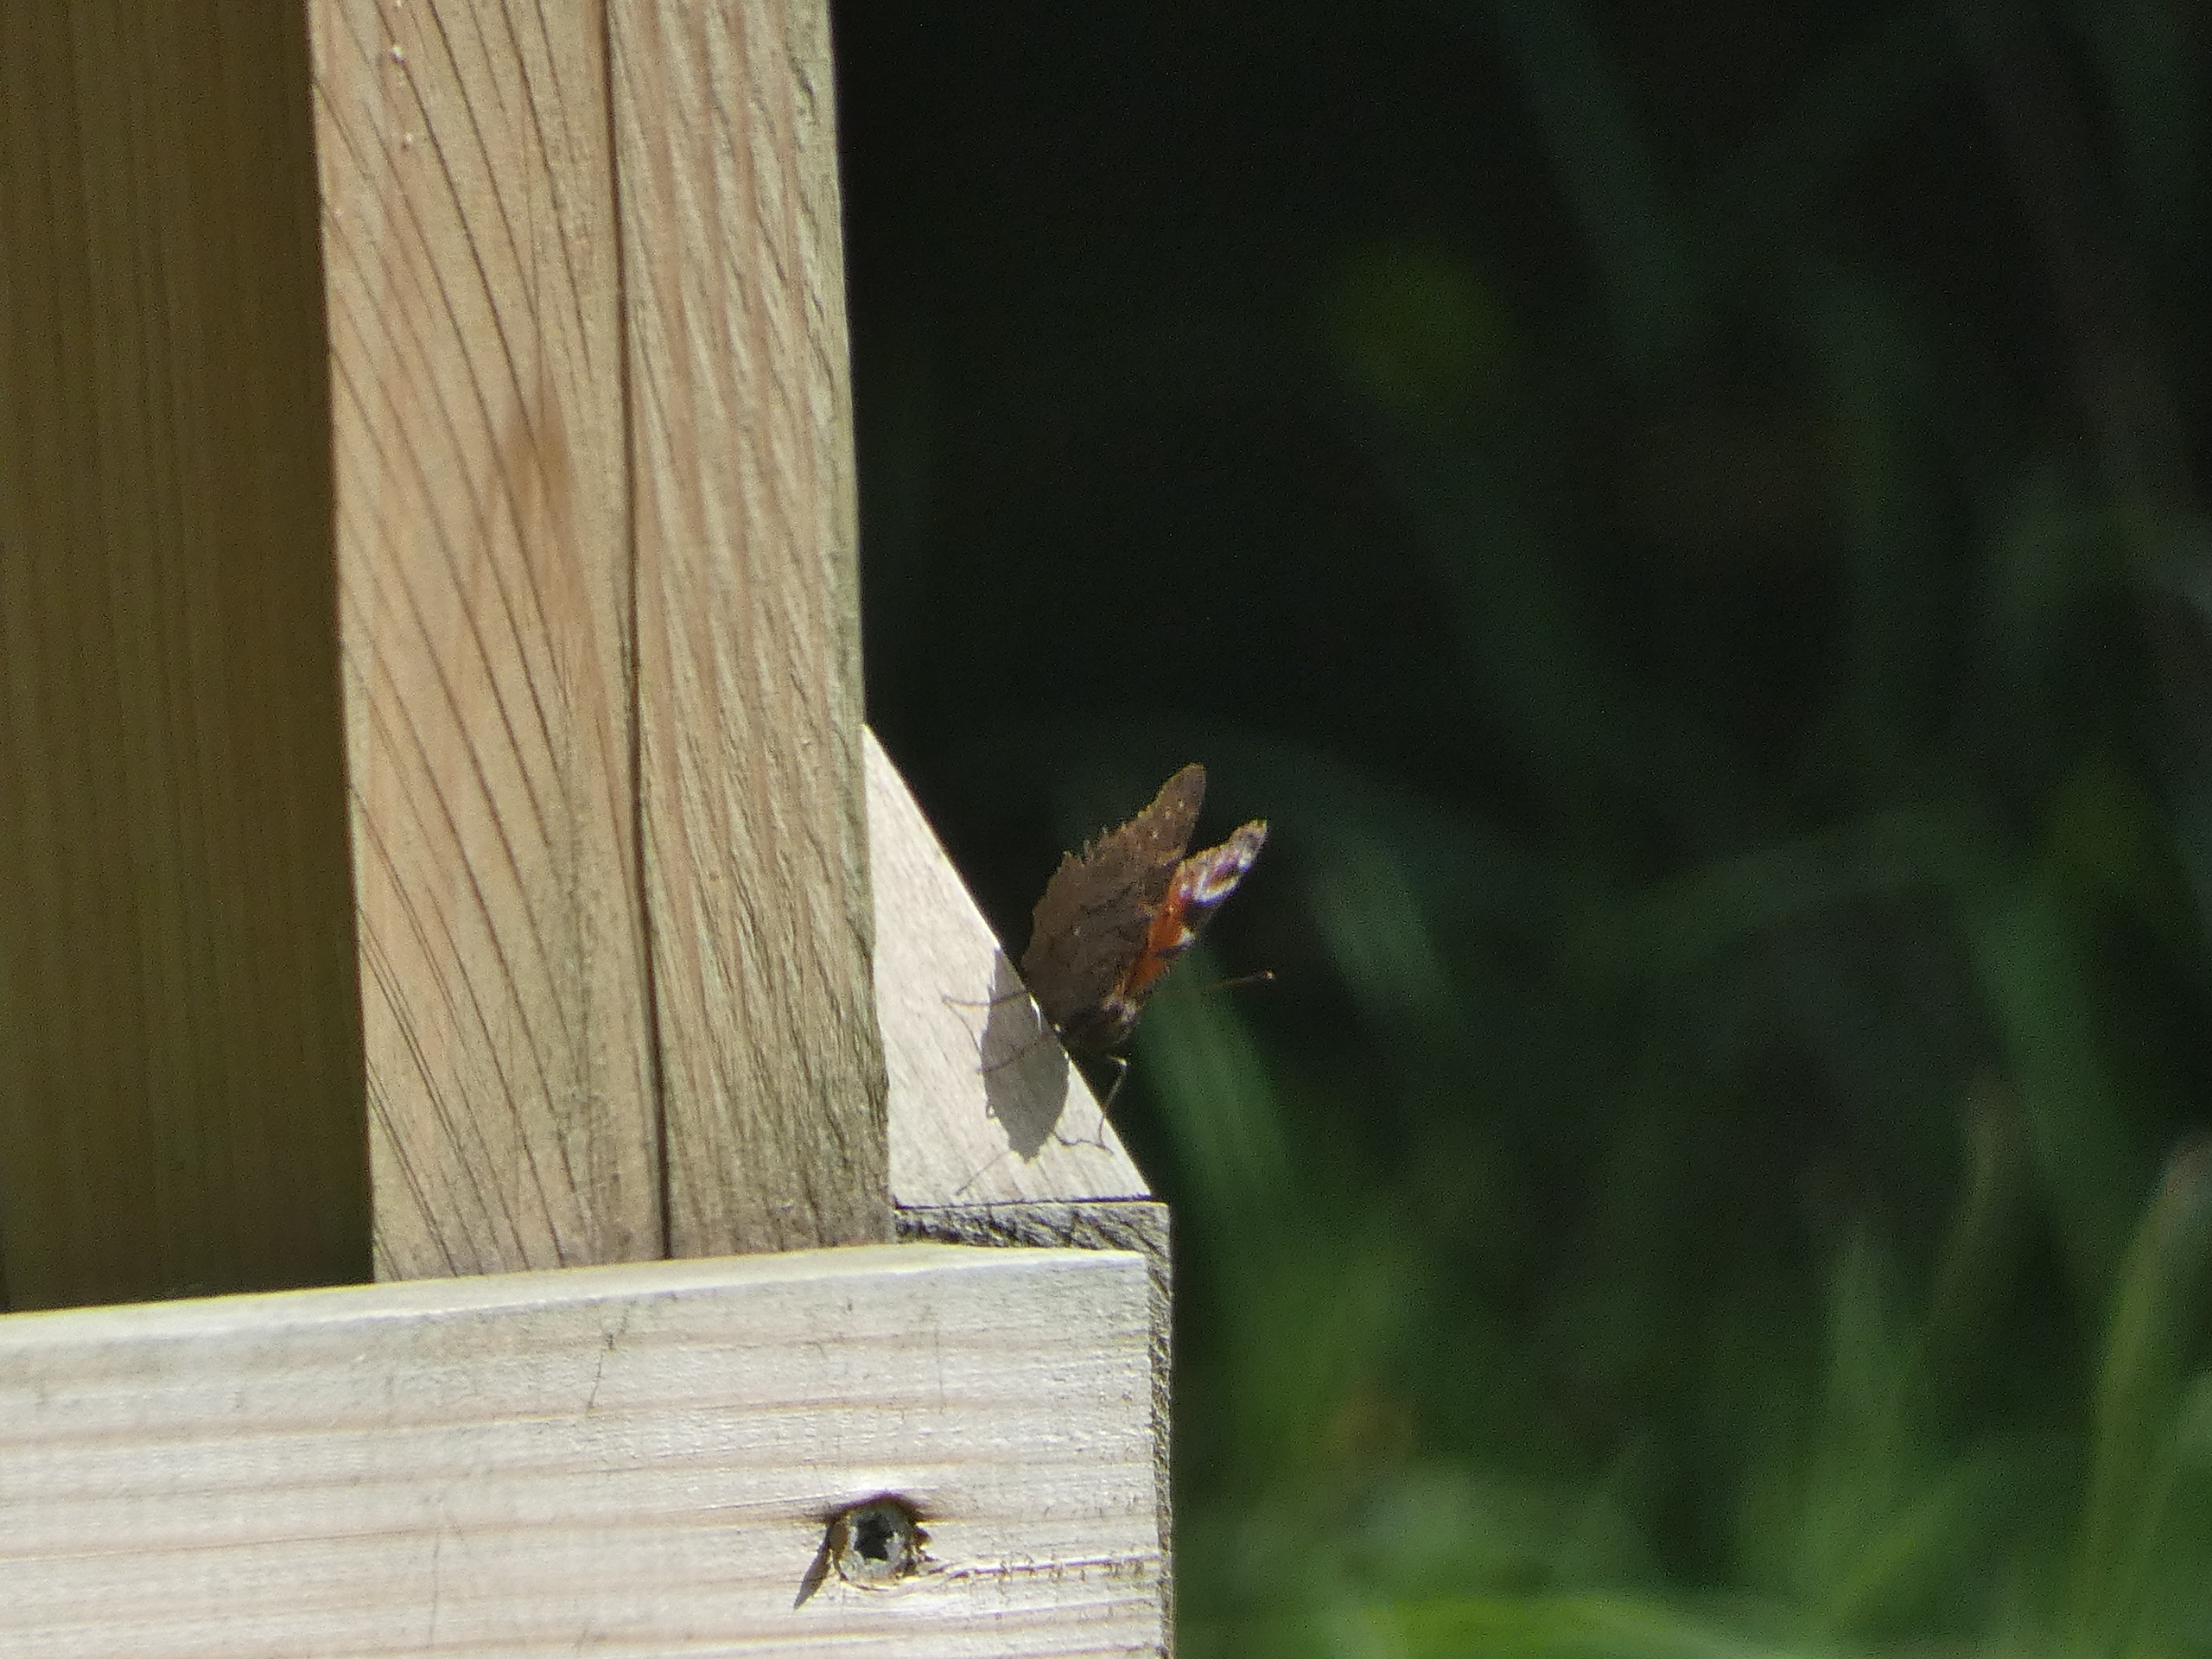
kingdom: Animalia
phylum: Arthropoda
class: Insecta
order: Lepidoptera
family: Nymphalidae
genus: Aglais
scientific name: Aglais io
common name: Dagpåfugleøje
